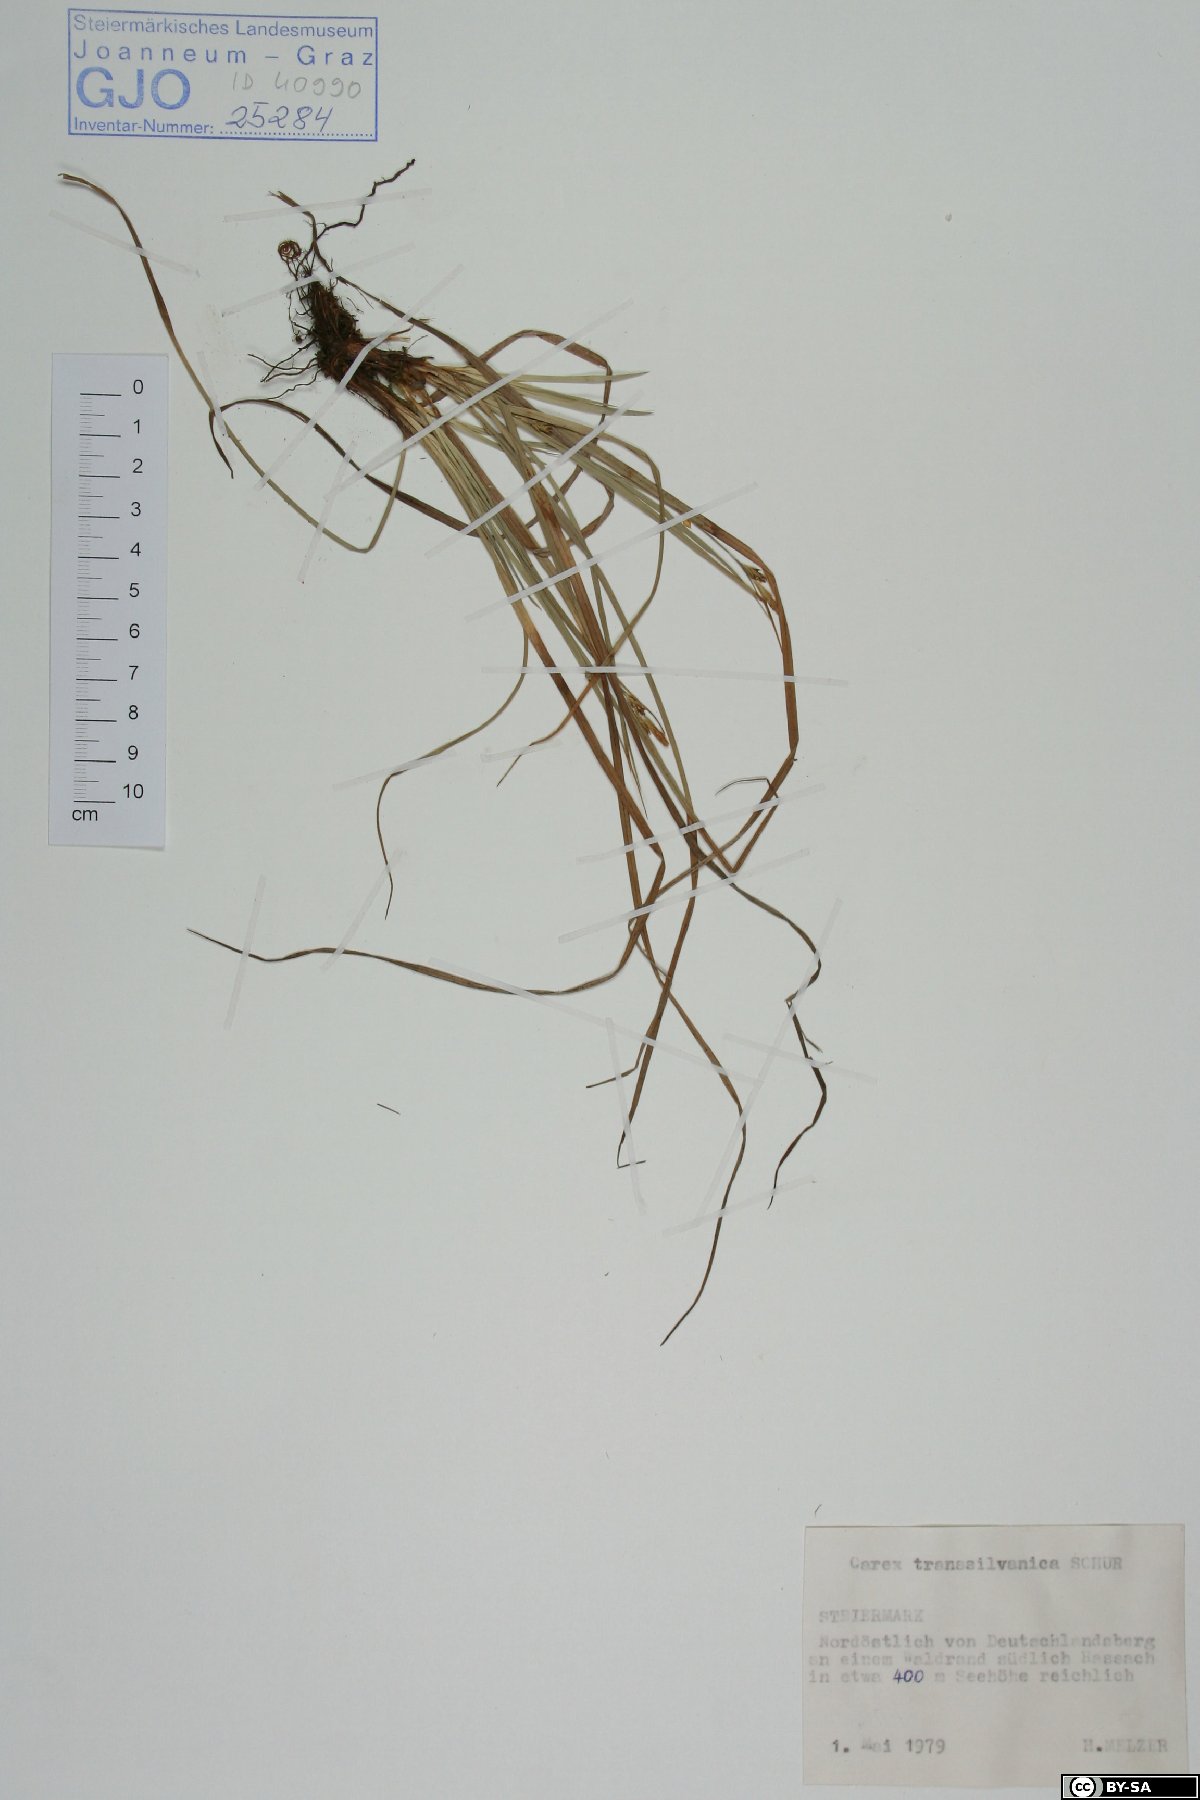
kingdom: Plantae
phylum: Tracheophyta
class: Liliopsida
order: Poales
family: Cyperaceae
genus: Carex
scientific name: Carex depressa
